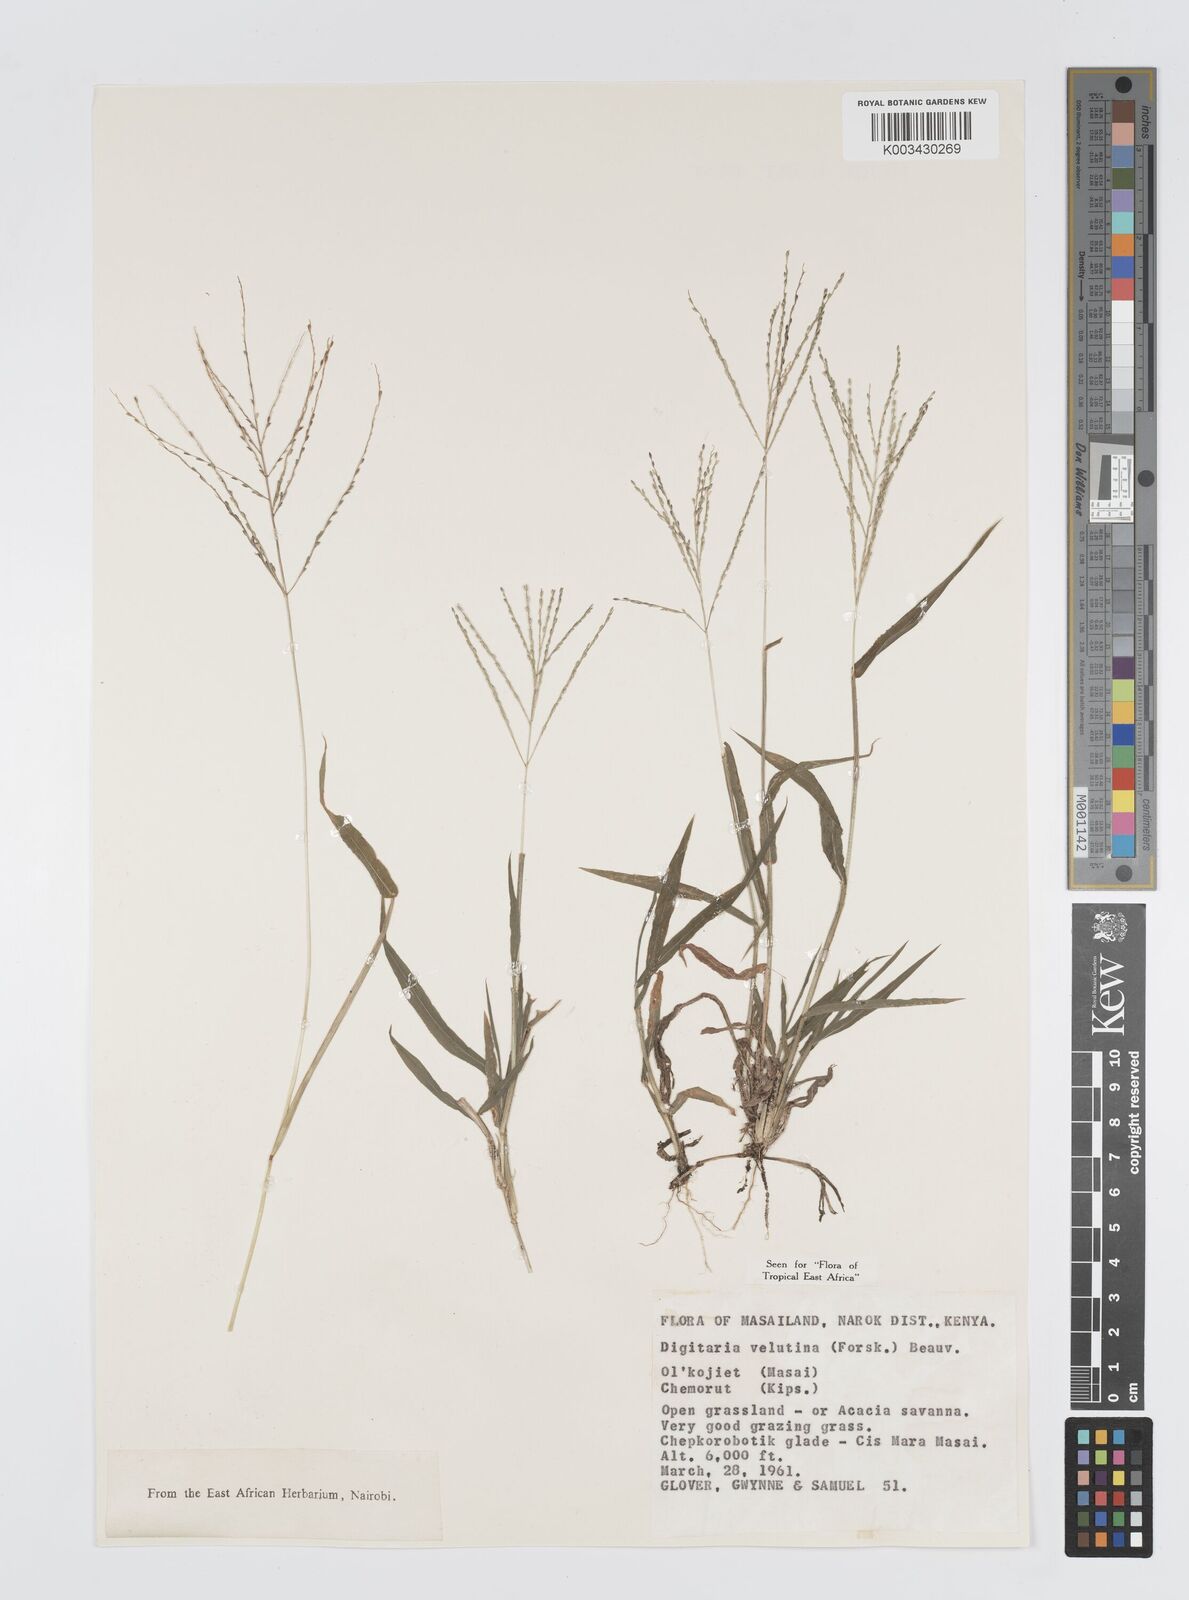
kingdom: Plantae
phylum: Tracheophyta
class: Liliopsida
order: Poales
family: Poaceae
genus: Digitaria
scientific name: Digitaria velutina
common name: Long-plume finger grass
